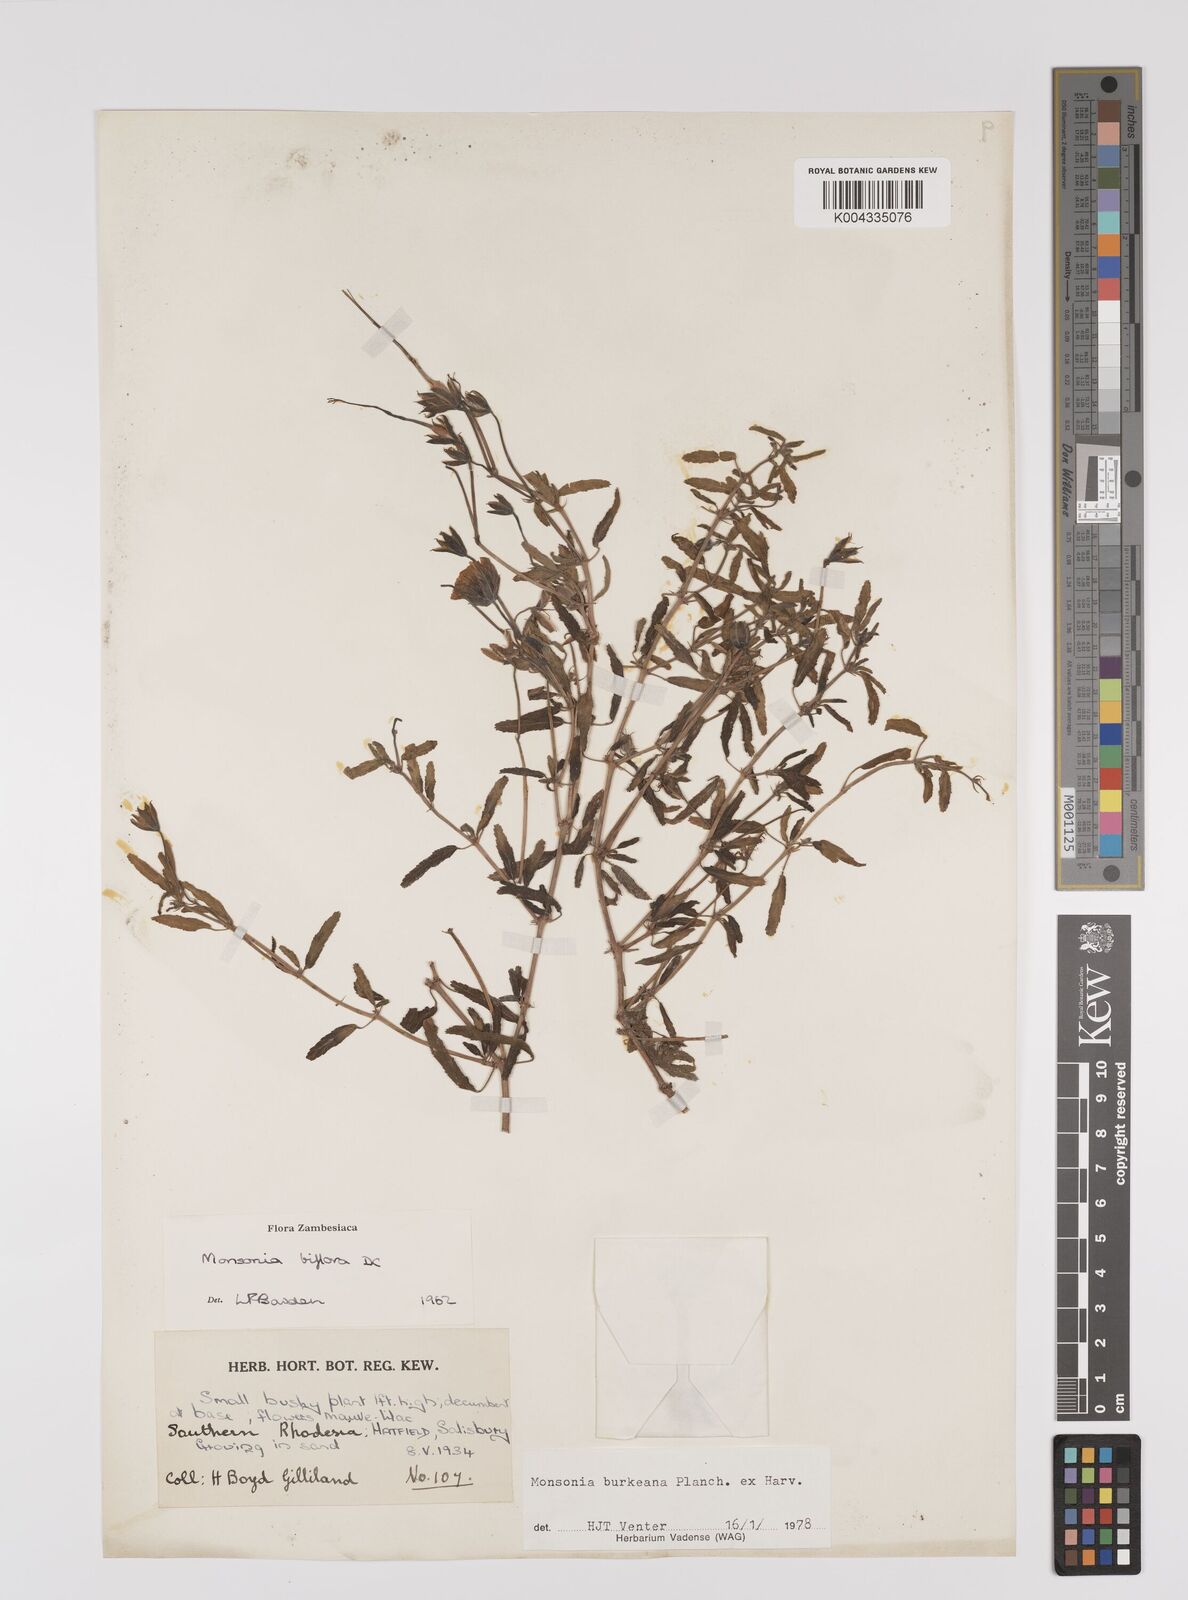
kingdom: Plantae
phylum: Tracheophyta
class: Magnoliopsida
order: Geraniales
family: Geraniaceae
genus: Monsonia
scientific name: Monsonia biflora
